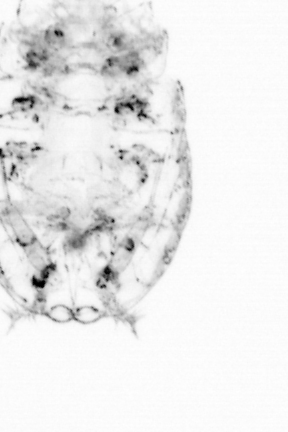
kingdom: Animalia
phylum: Arthropoda
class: Copepoda
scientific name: Copepoda
